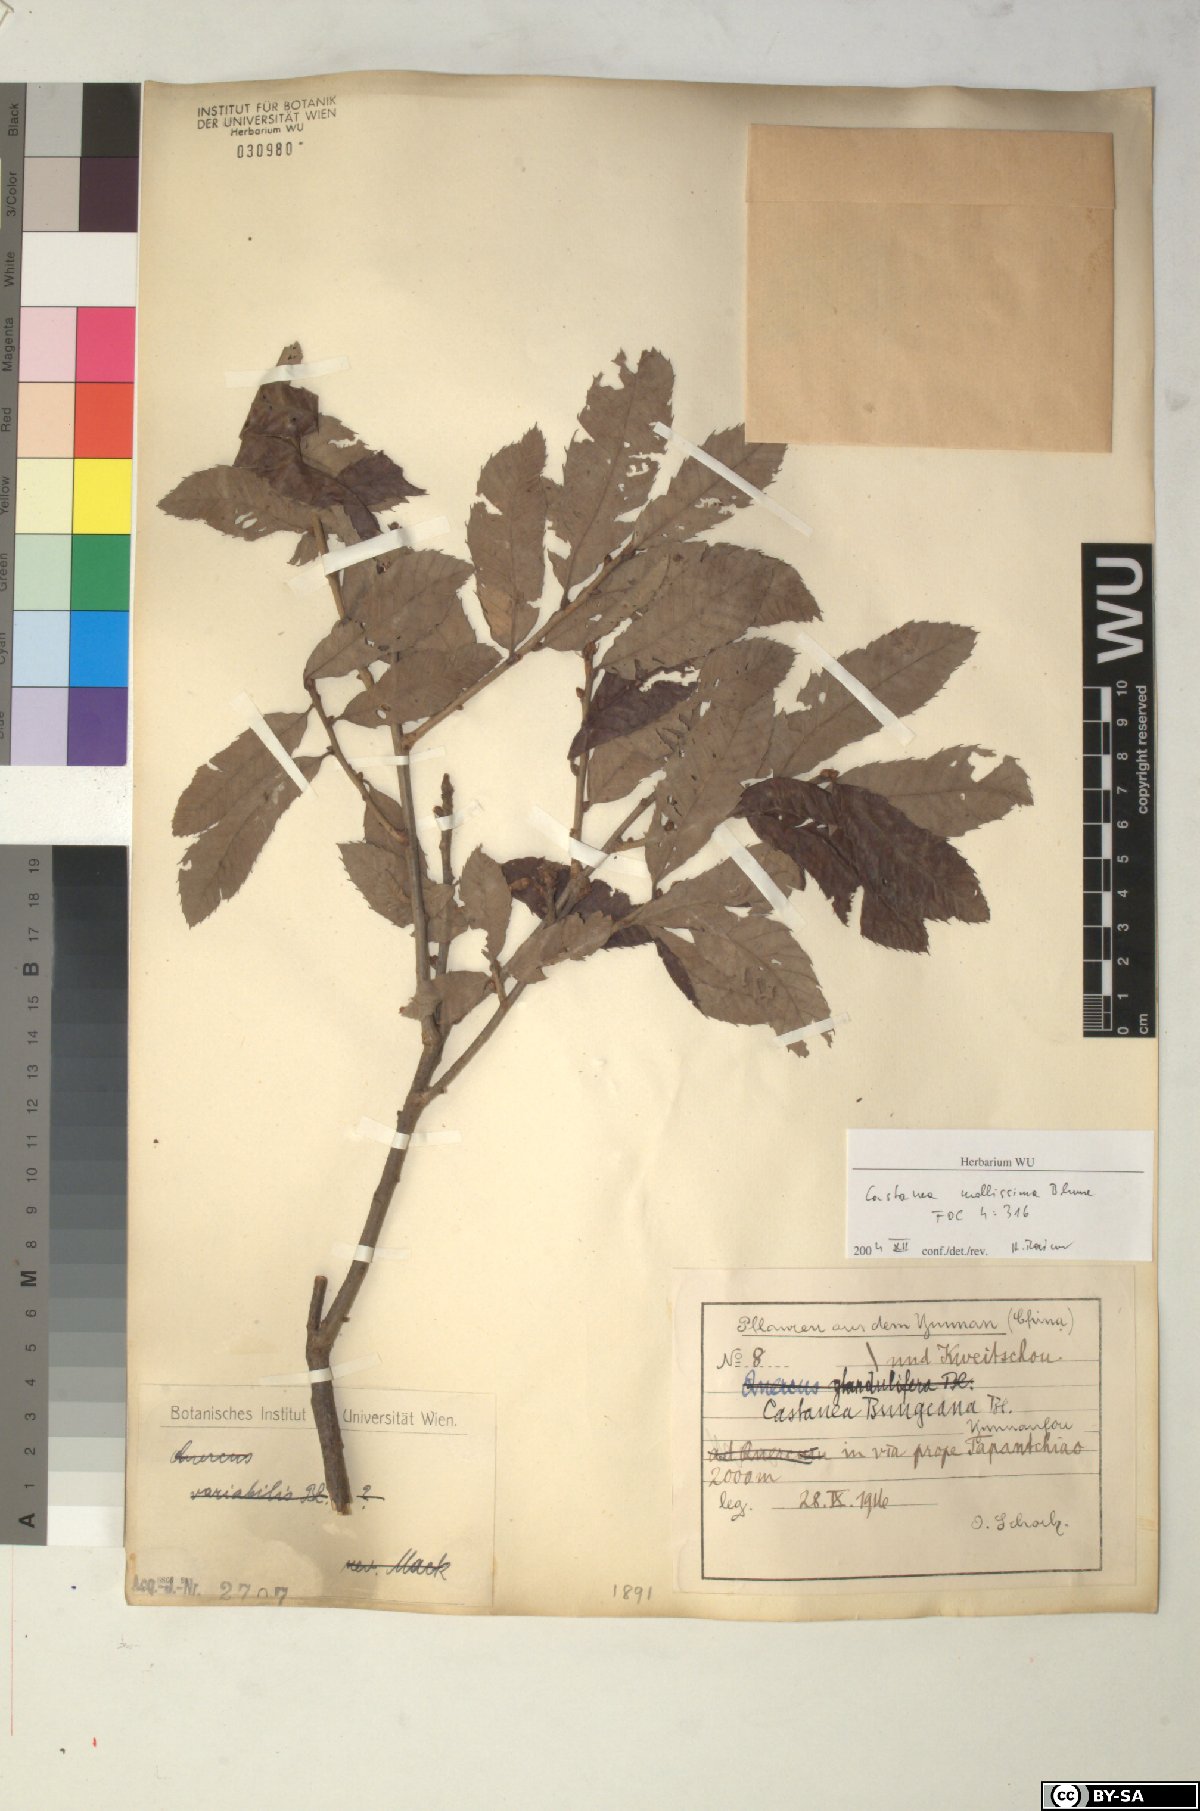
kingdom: Plantae
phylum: Tracheophyta
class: Magnoliopsida
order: Fagales
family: Fagaceae
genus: Castanea
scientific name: Castanea mollissima
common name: Chinese chestnut
